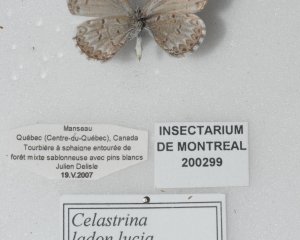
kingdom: Animalia
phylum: Arthropoda
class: Insecta
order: Lepidoptera
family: Lycaenidae
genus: Celastrina
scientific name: Celastrina lucia
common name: Northern Spring Azure
